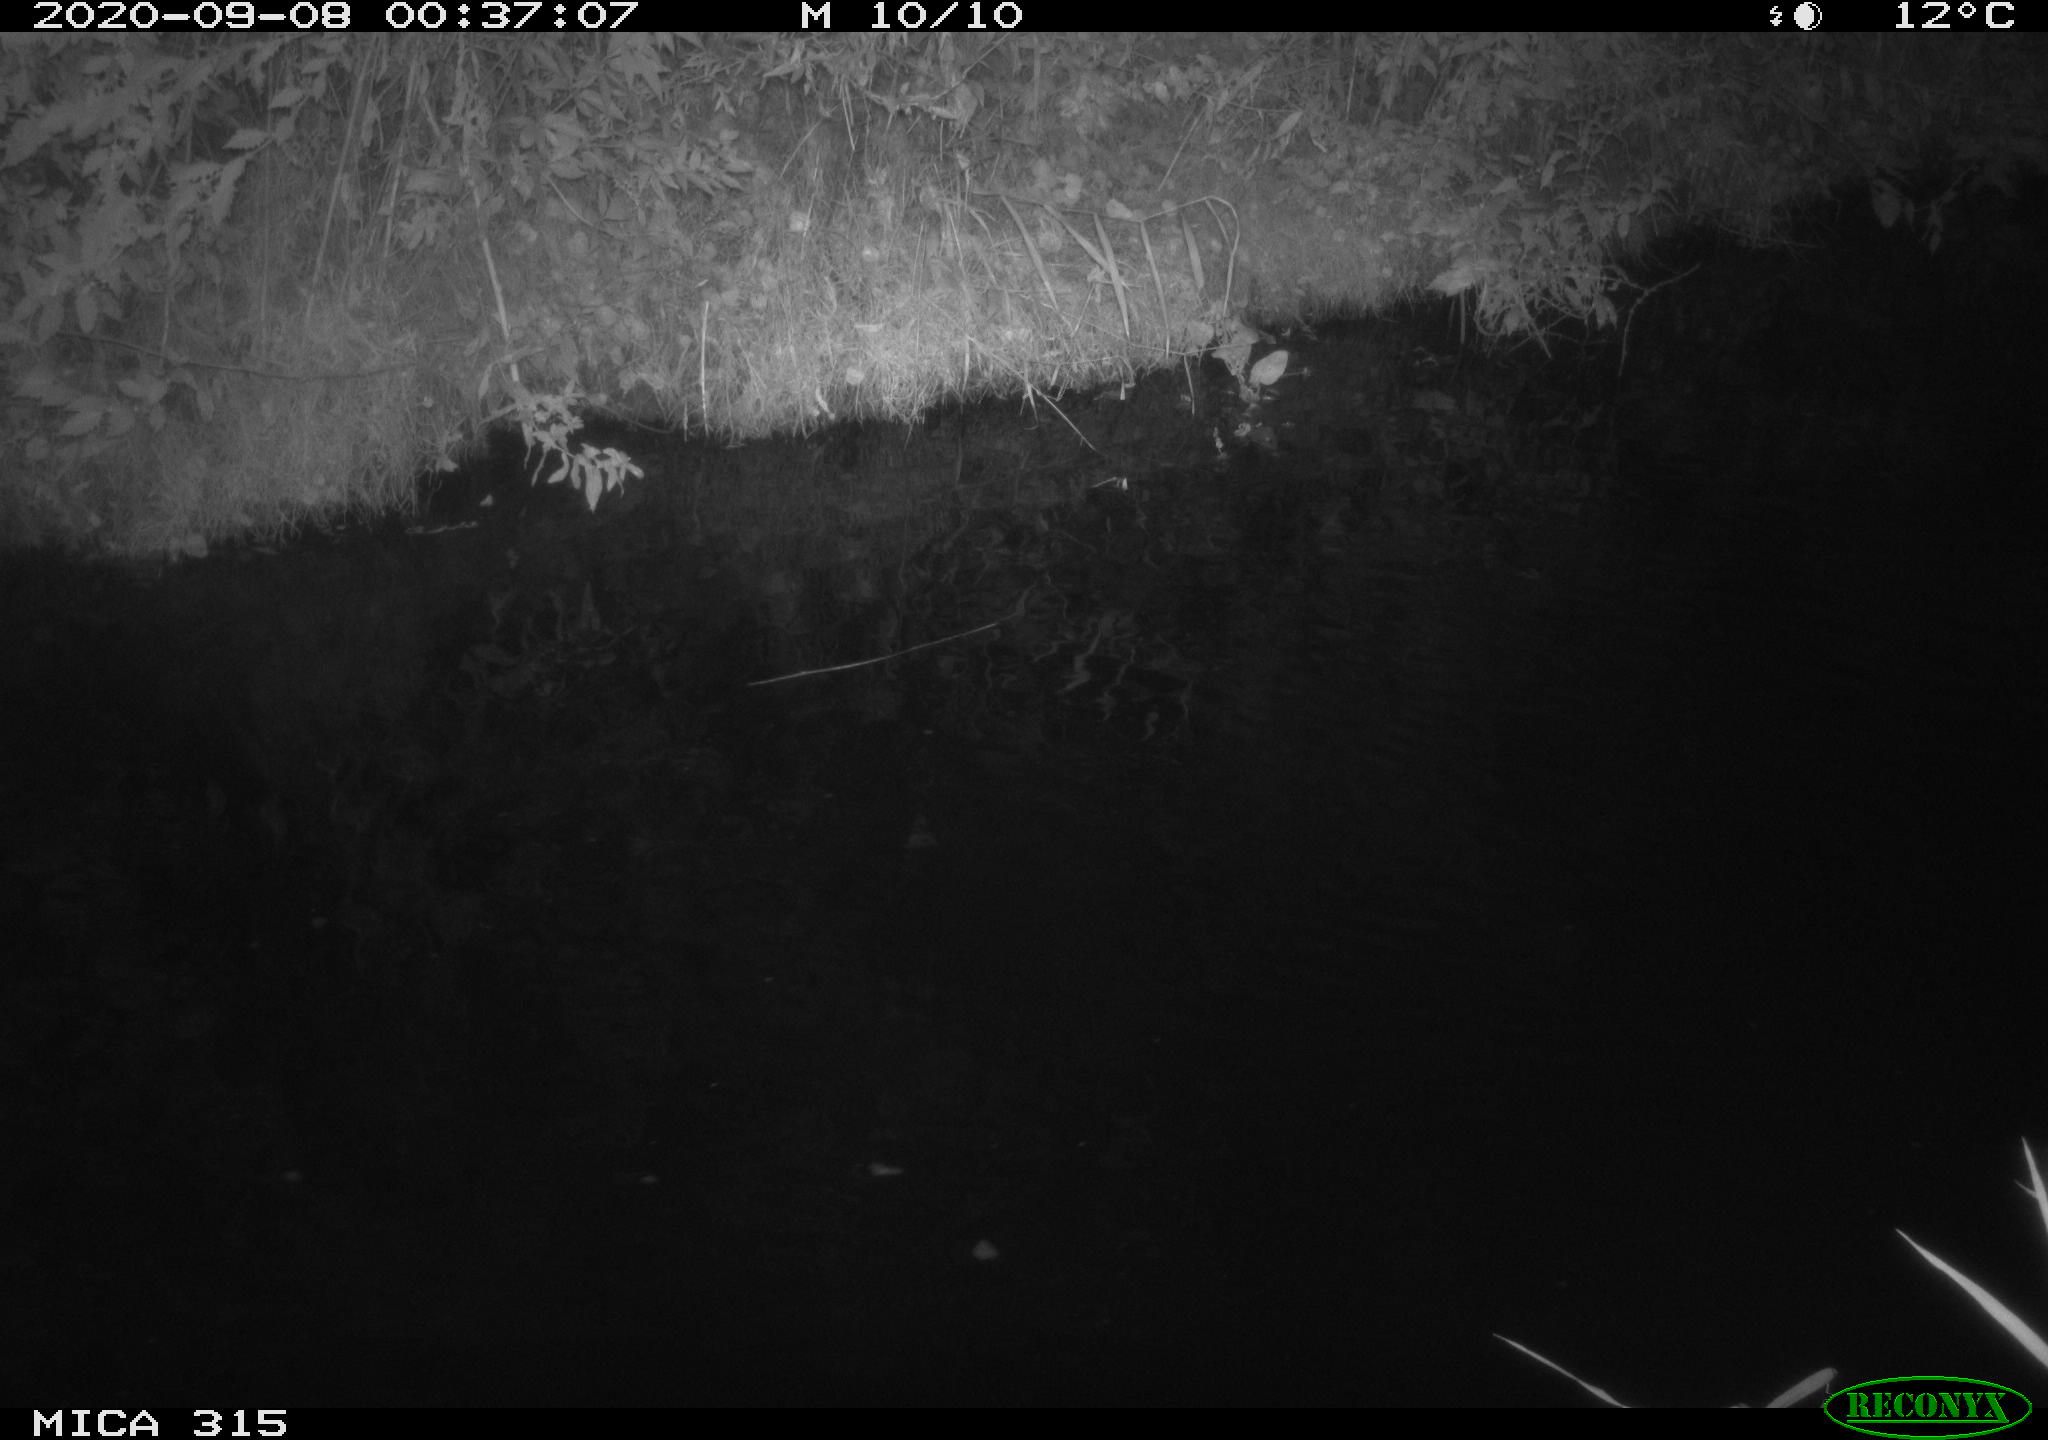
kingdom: Animalia
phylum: Chordata
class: Aves
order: Anseriformes
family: Anatidae
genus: Anas
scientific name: Anas platyrhynchos
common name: Mallard
